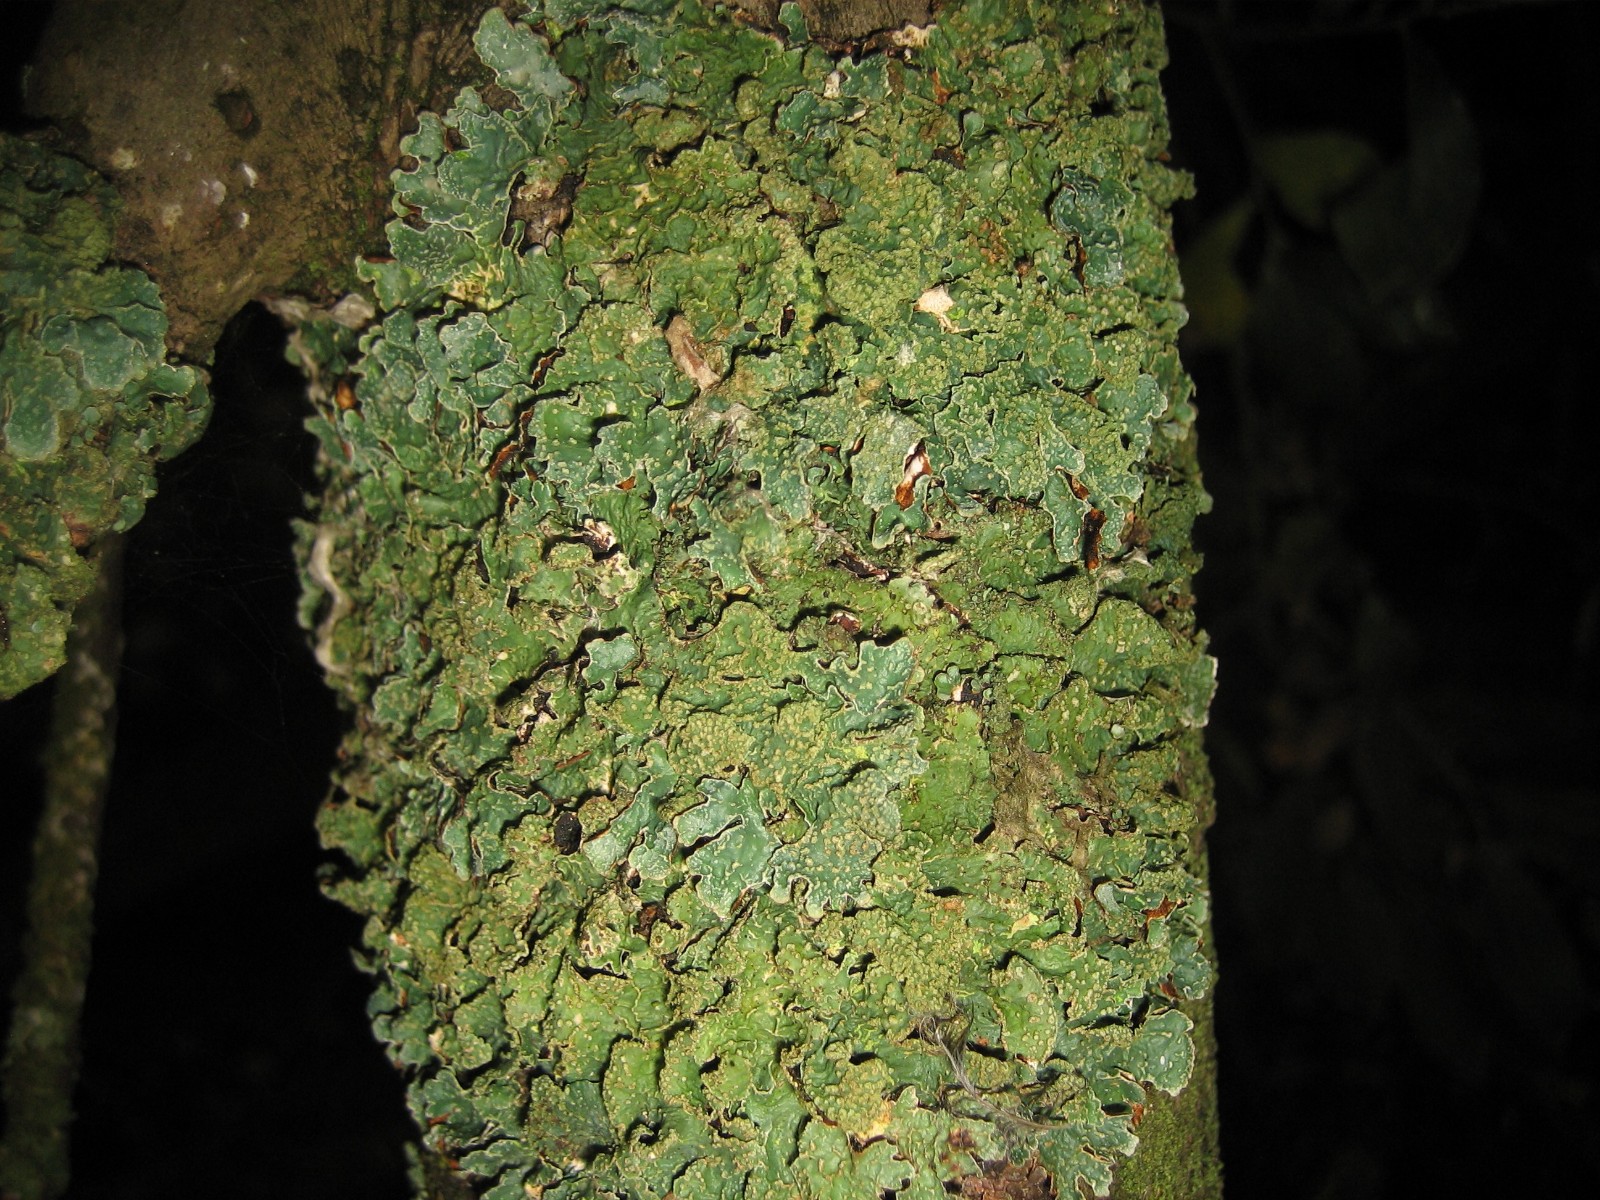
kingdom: Fungi
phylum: Ascomycota
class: Lecanoromycetes
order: Lecanorales
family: Parmeliaceae
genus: Parmelia
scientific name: Parmelia sulcata
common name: rynket skållav
